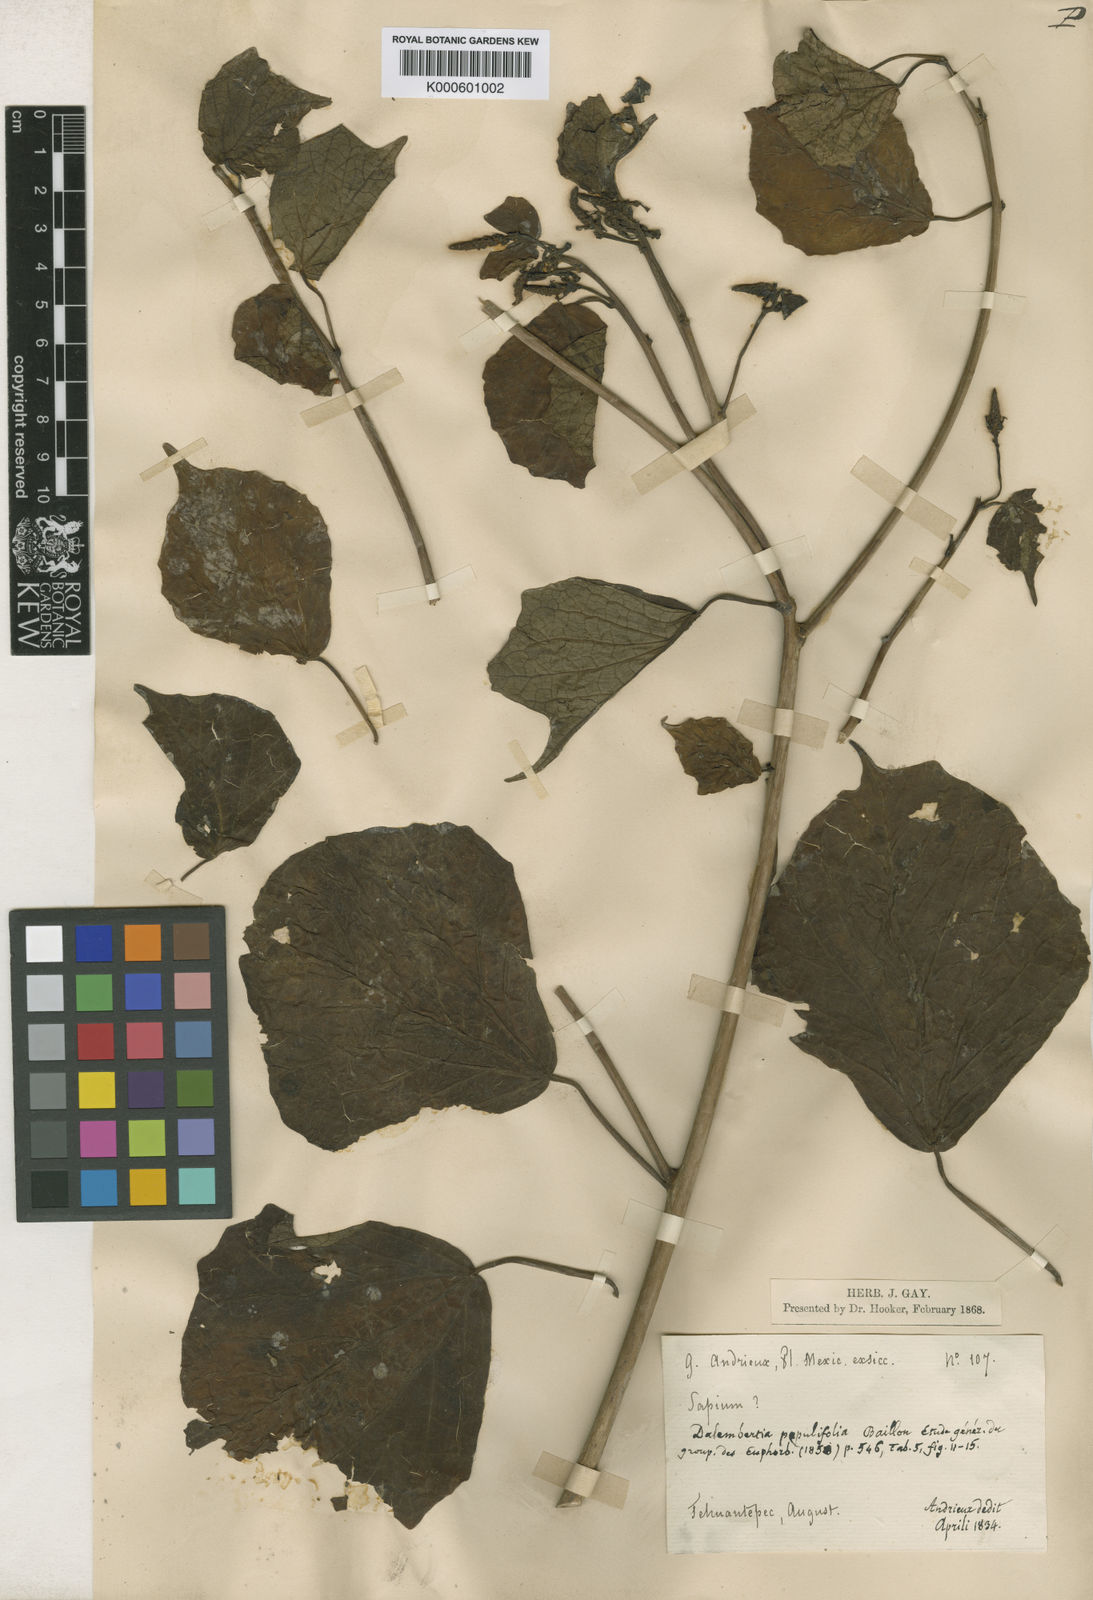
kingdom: Plantae
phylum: Tracheophyta
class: Magnoliopsida
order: Malpighiales
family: Euphorbiaceae
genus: Dalembertia
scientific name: Dalembertia populifolia
